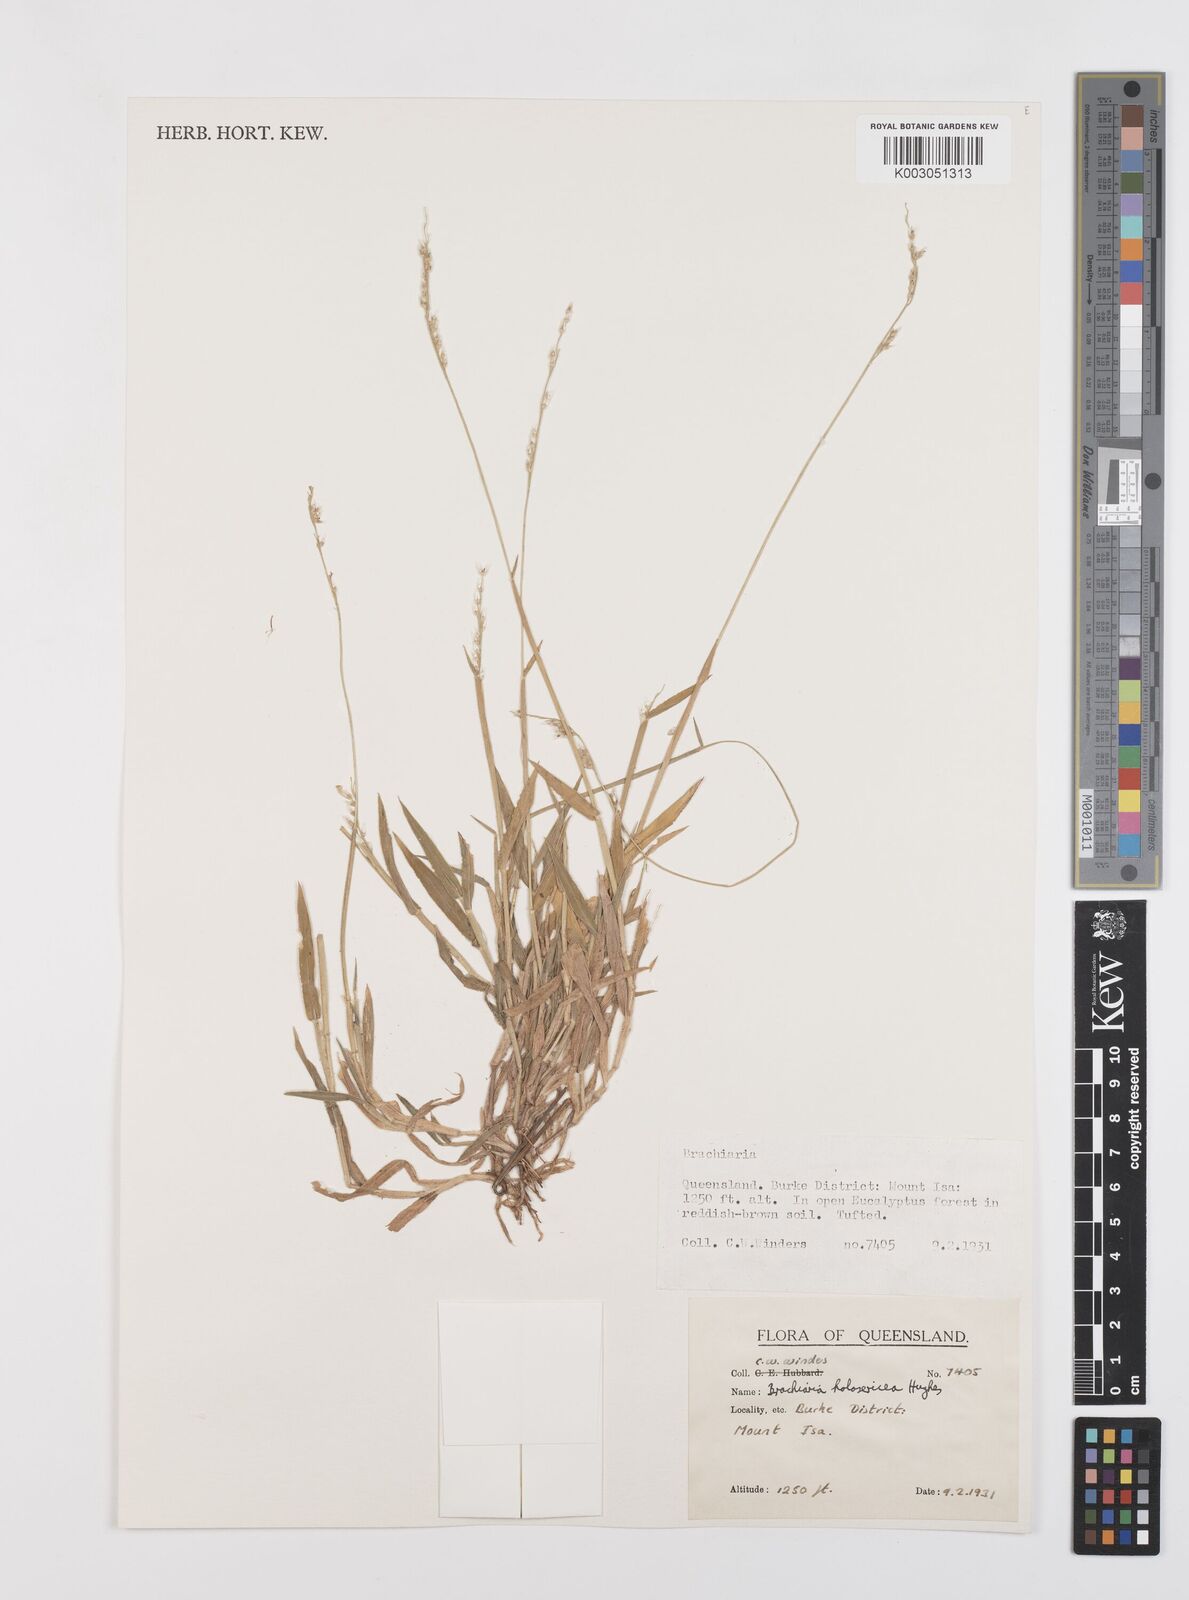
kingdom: Plantae
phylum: Tracheophyta
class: Liliopsida
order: Poales
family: Poaceae
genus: Urochloa
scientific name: Urochloa holosericea
